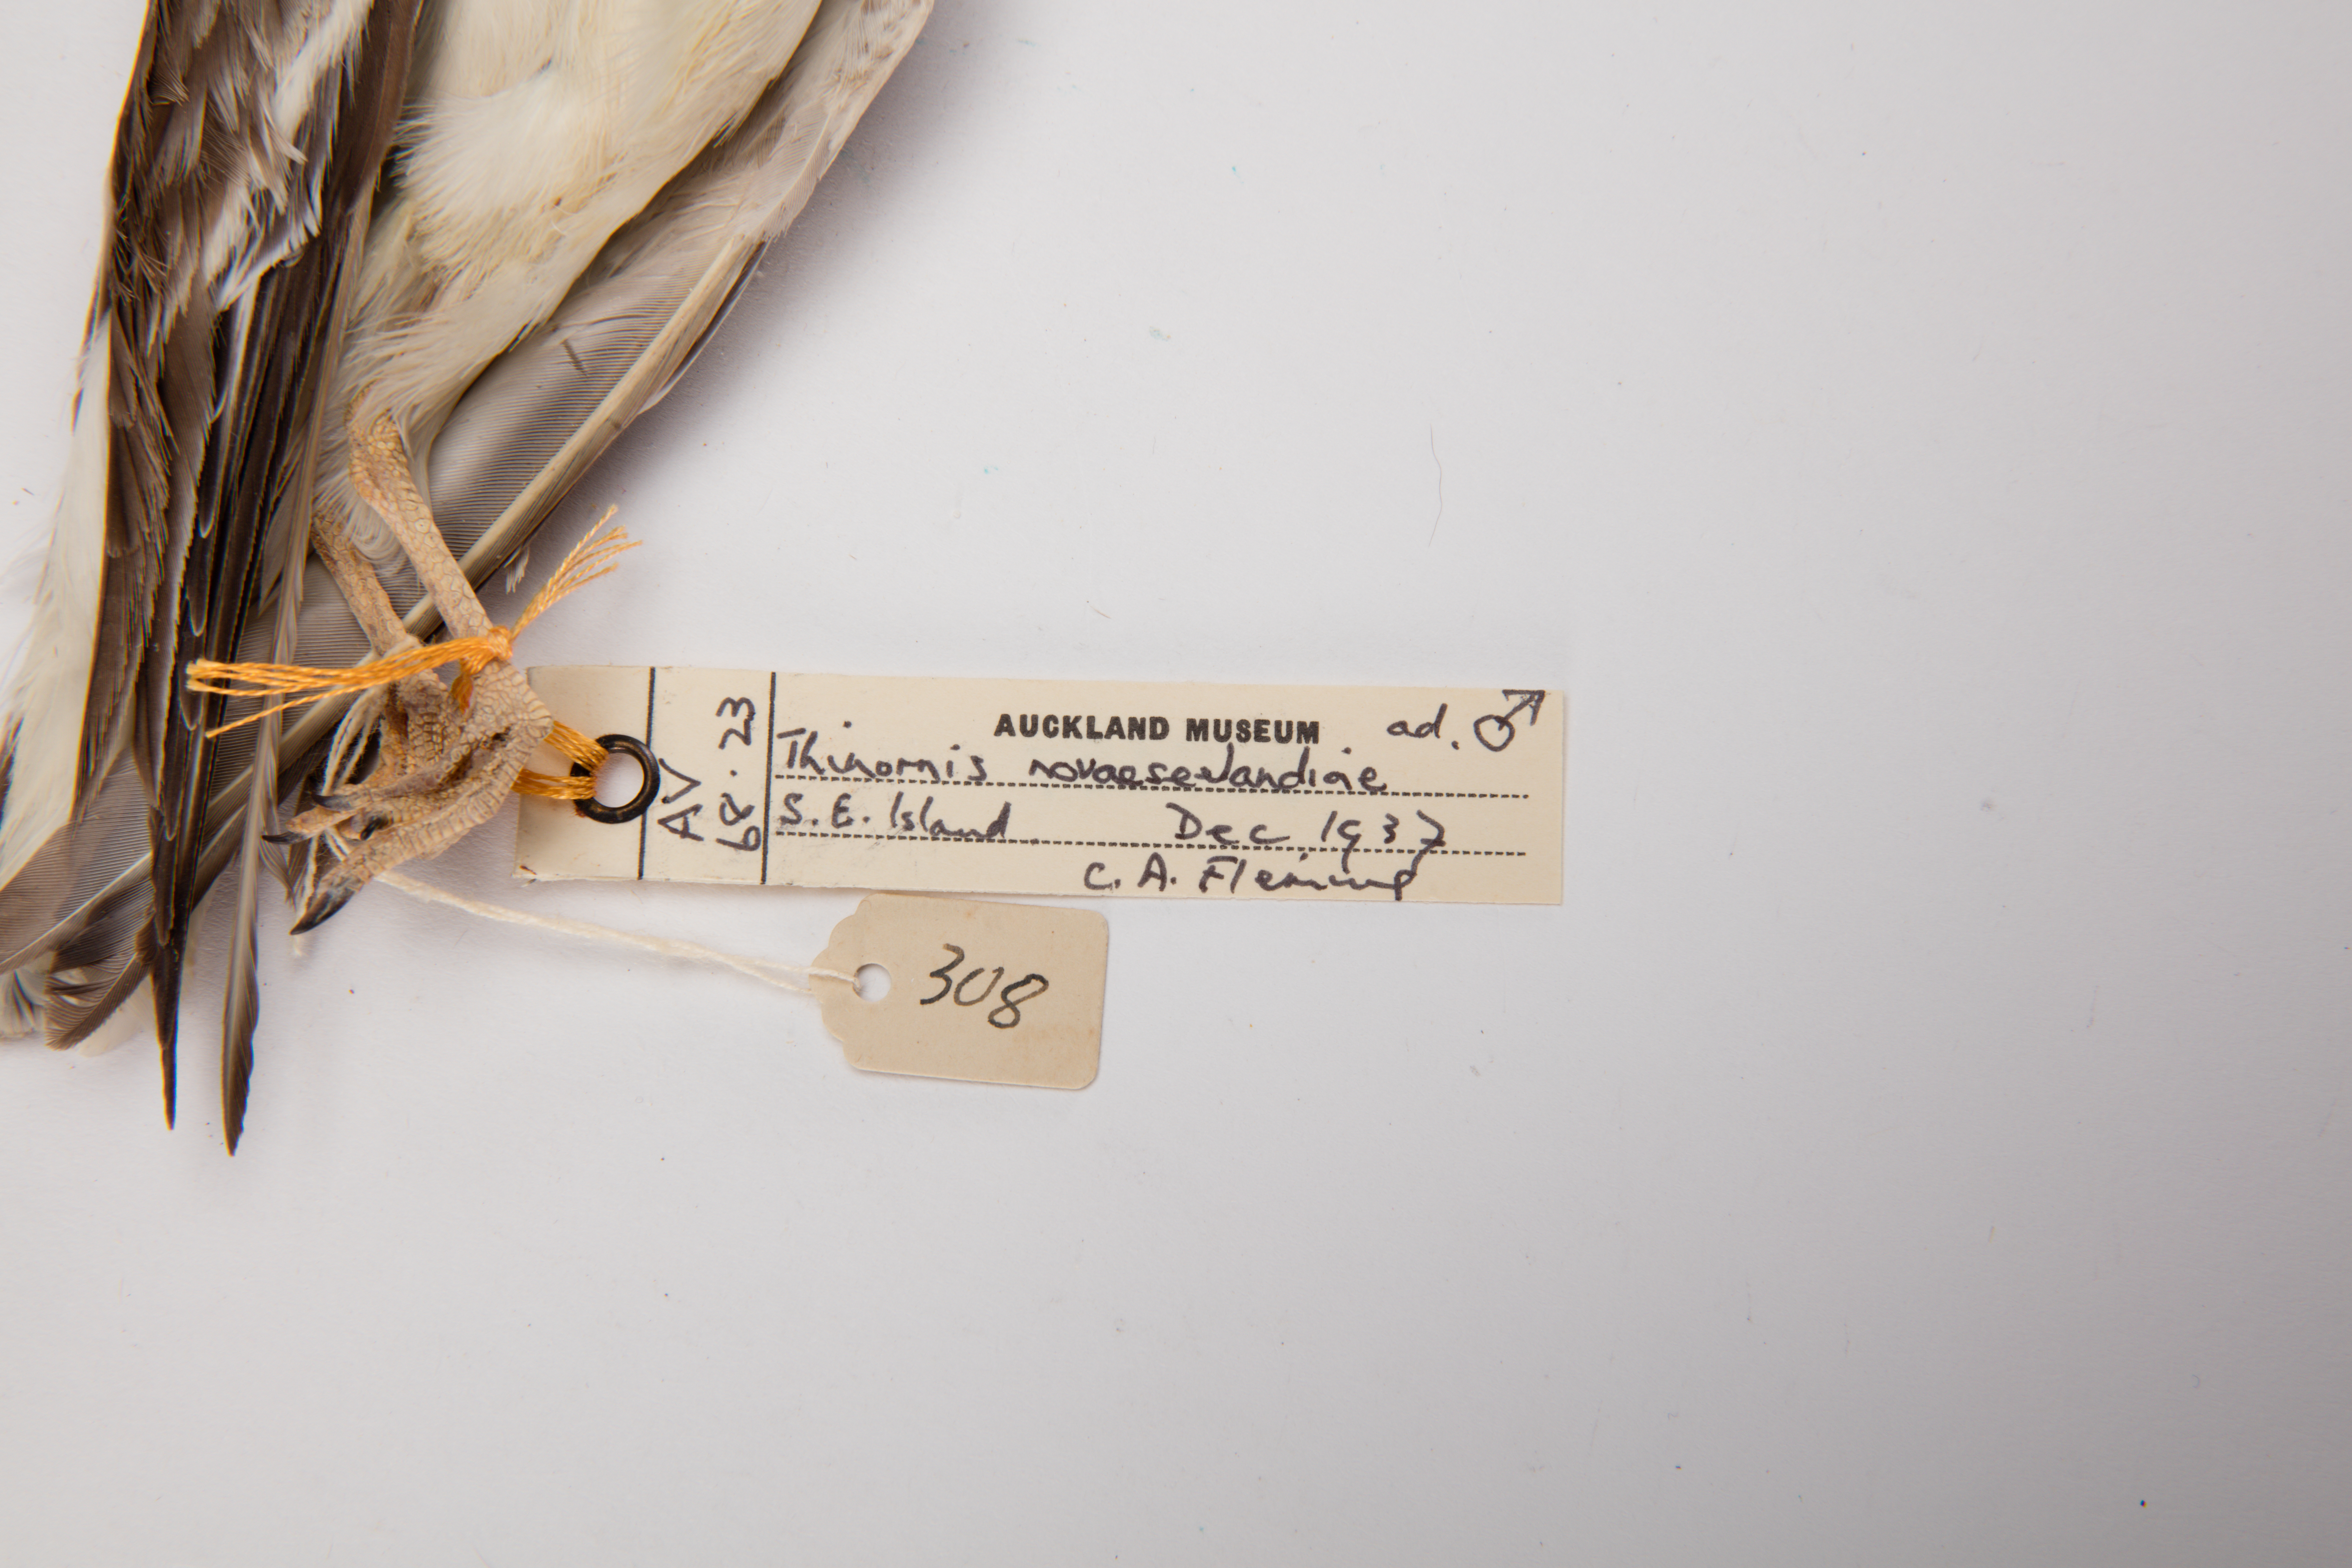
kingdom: Animalia
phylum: Chordata
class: Aves
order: Charadriiformes
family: Charadriidae
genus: Thinornis
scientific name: Thinornis novaeseelandiae
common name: Shore dotterel
